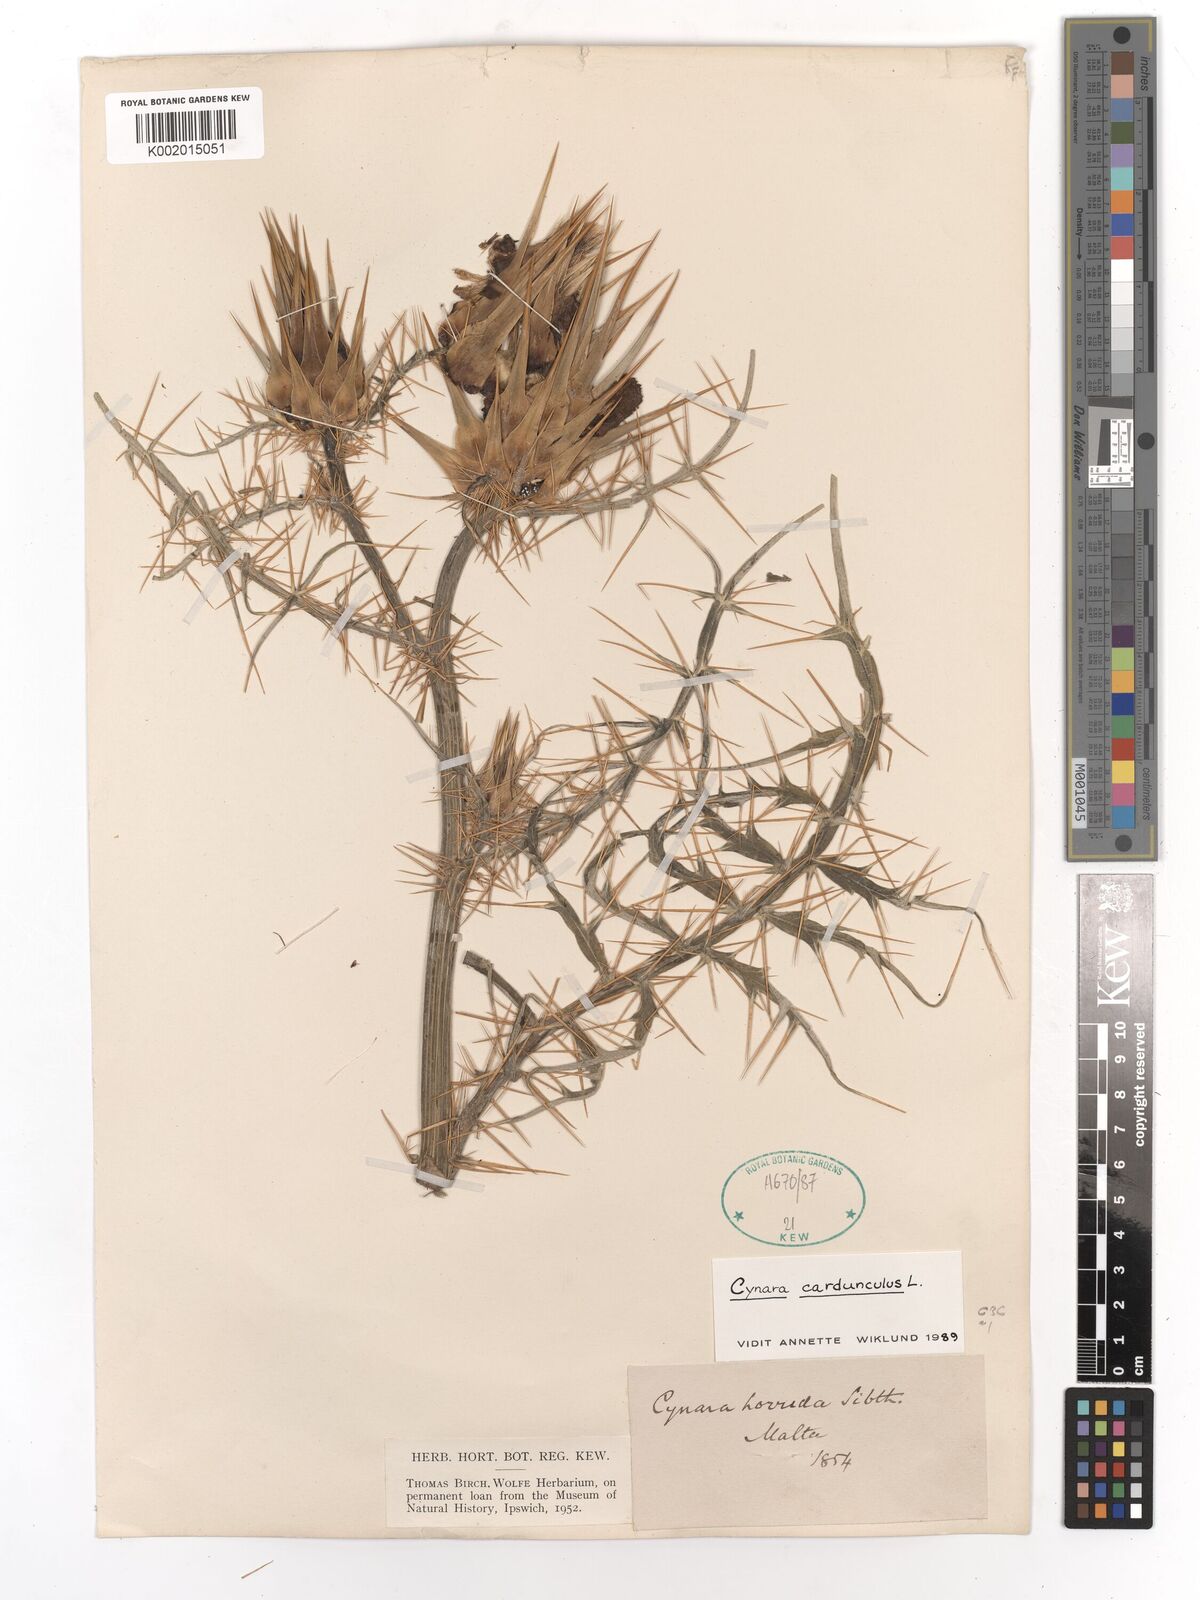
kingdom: Plantae
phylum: Tracheophyta
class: Magnoliopsida
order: Asterales
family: Asteraceae
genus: Cynara
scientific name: Cynara cardunculus
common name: Globe artichoke
